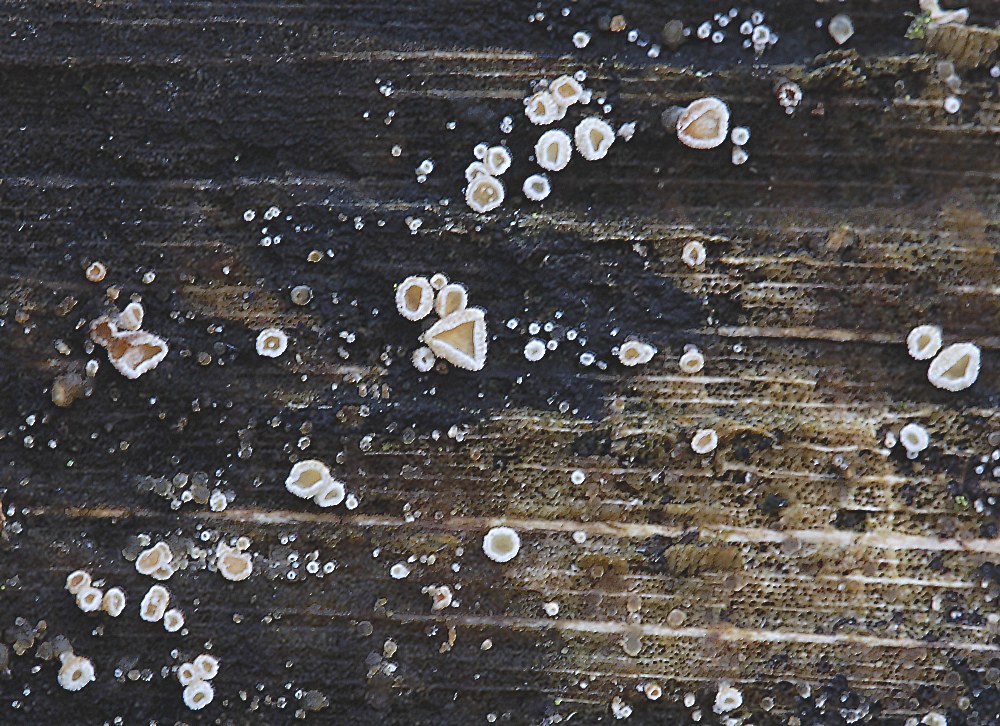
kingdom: Fungi
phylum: Ascomycota
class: Leotiomycetes
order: Helotiales
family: Lachnaceae
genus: Trichopeziza
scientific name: Trichopeziza subsulphurea
